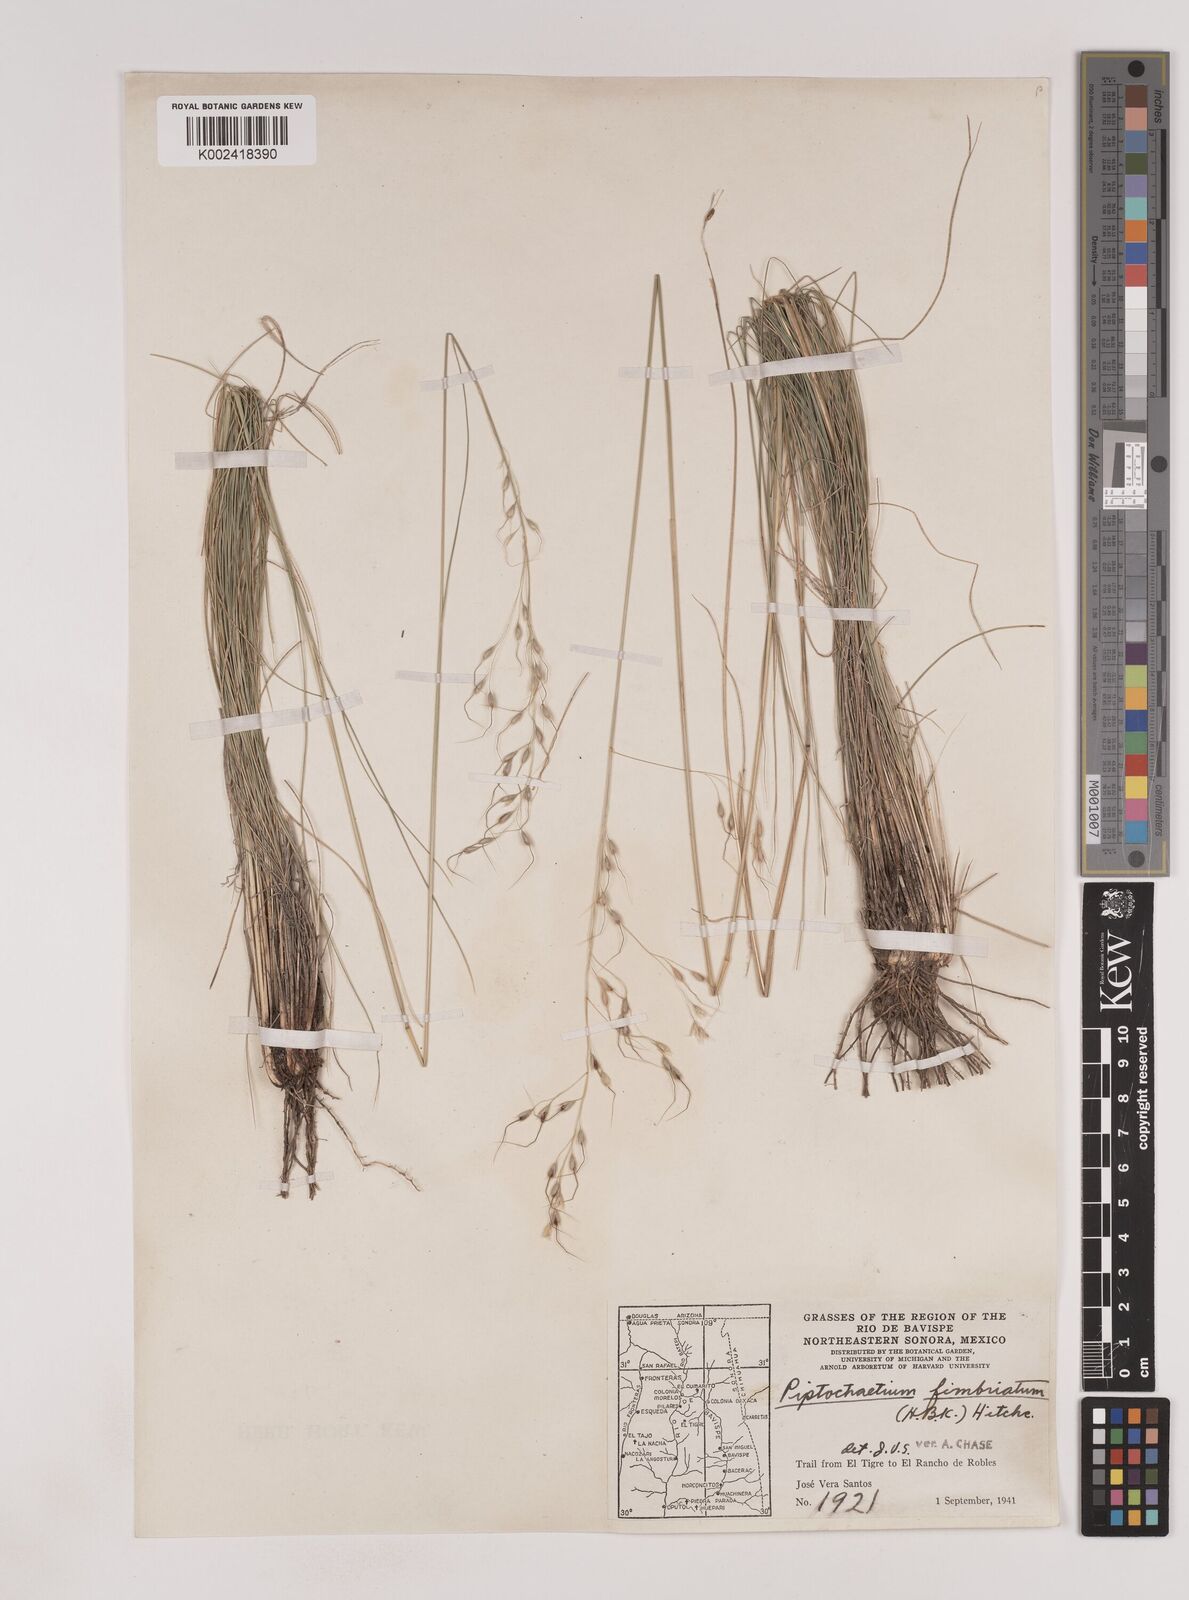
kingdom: Plantae
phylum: Tracheophyta
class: Liliopsida
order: Poales
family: Poaceae
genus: Piptochaetium
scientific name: Piptochaetium fimbriatum
